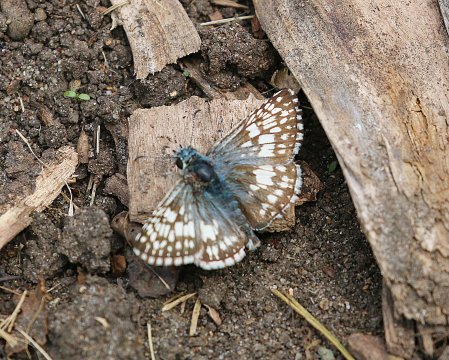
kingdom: Animalia
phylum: Arthropoda
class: Insecta
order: Lepidoptera
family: Hesperiidae
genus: Pyrgus
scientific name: Pyrgus communis
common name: Common Checkered-Skipper
